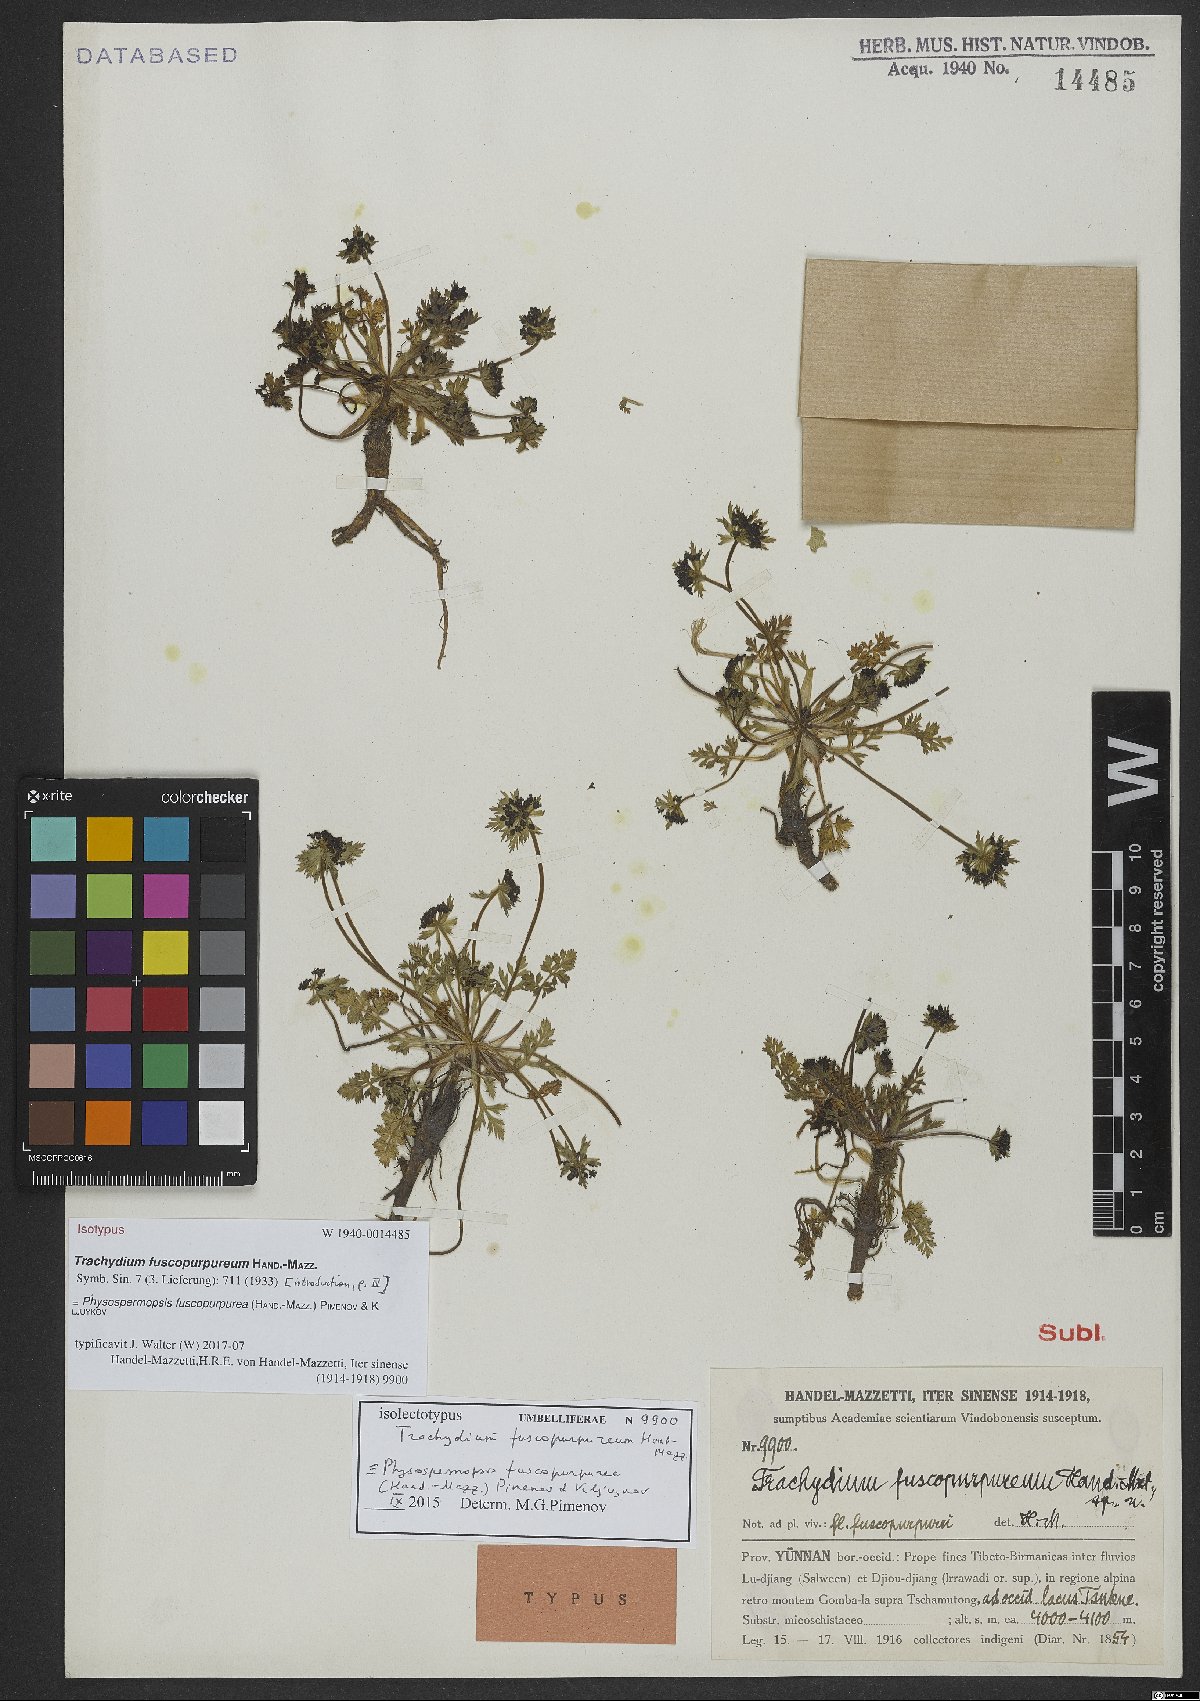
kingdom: Plantae
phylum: Tracheophyta
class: Magnoliopsida
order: Apiales
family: Apiaceae
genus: Hymenidium
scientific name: Hymenidium heterosciadium
